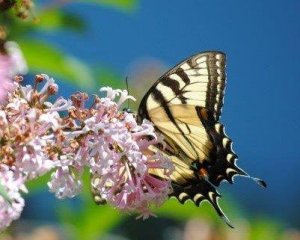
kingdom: Animalia
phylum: Arthropoda
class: Insecta
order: Lepidoptera
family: Papilionidae
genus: Pterourus
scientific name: Pterourus glaucus
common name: Eastern Tiger Swallowtail
